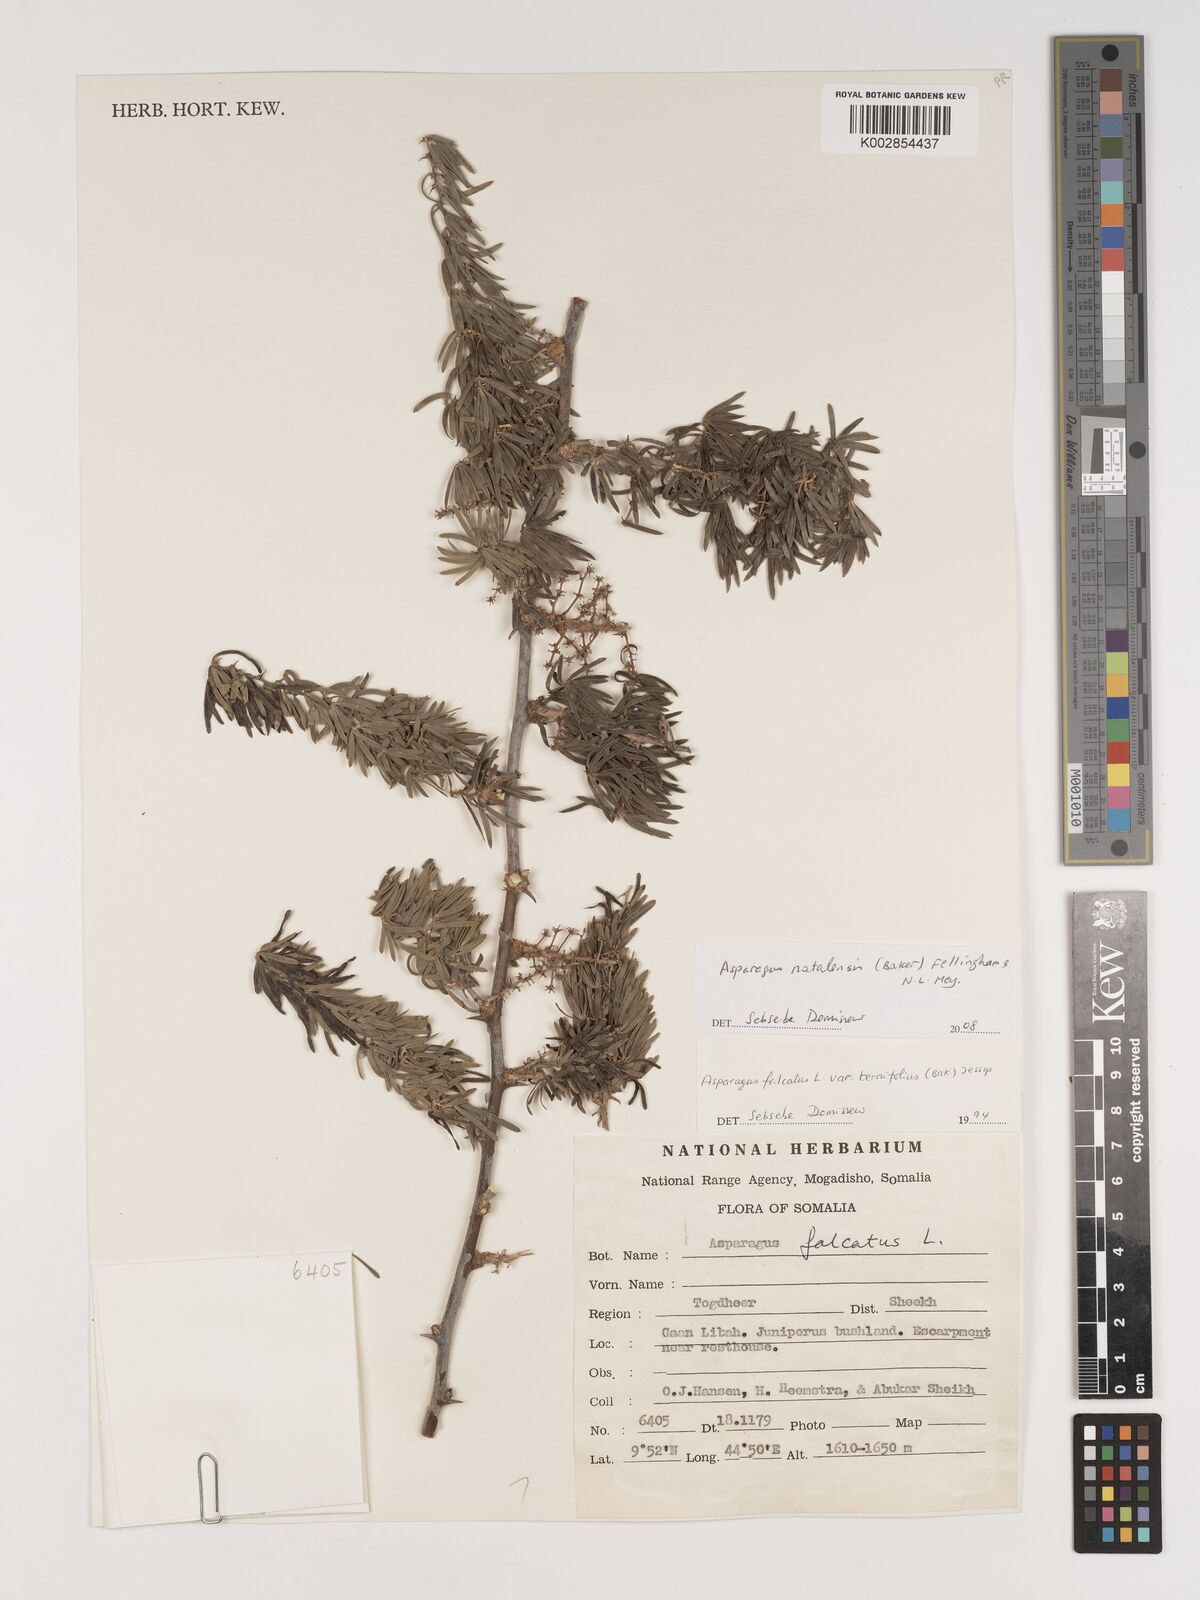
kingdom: Plantae
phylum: Tracheophyta
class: Liliopsida
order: Asparagales
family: Asparagaceae
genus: Asparagus
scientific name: Asparagus natalensis
